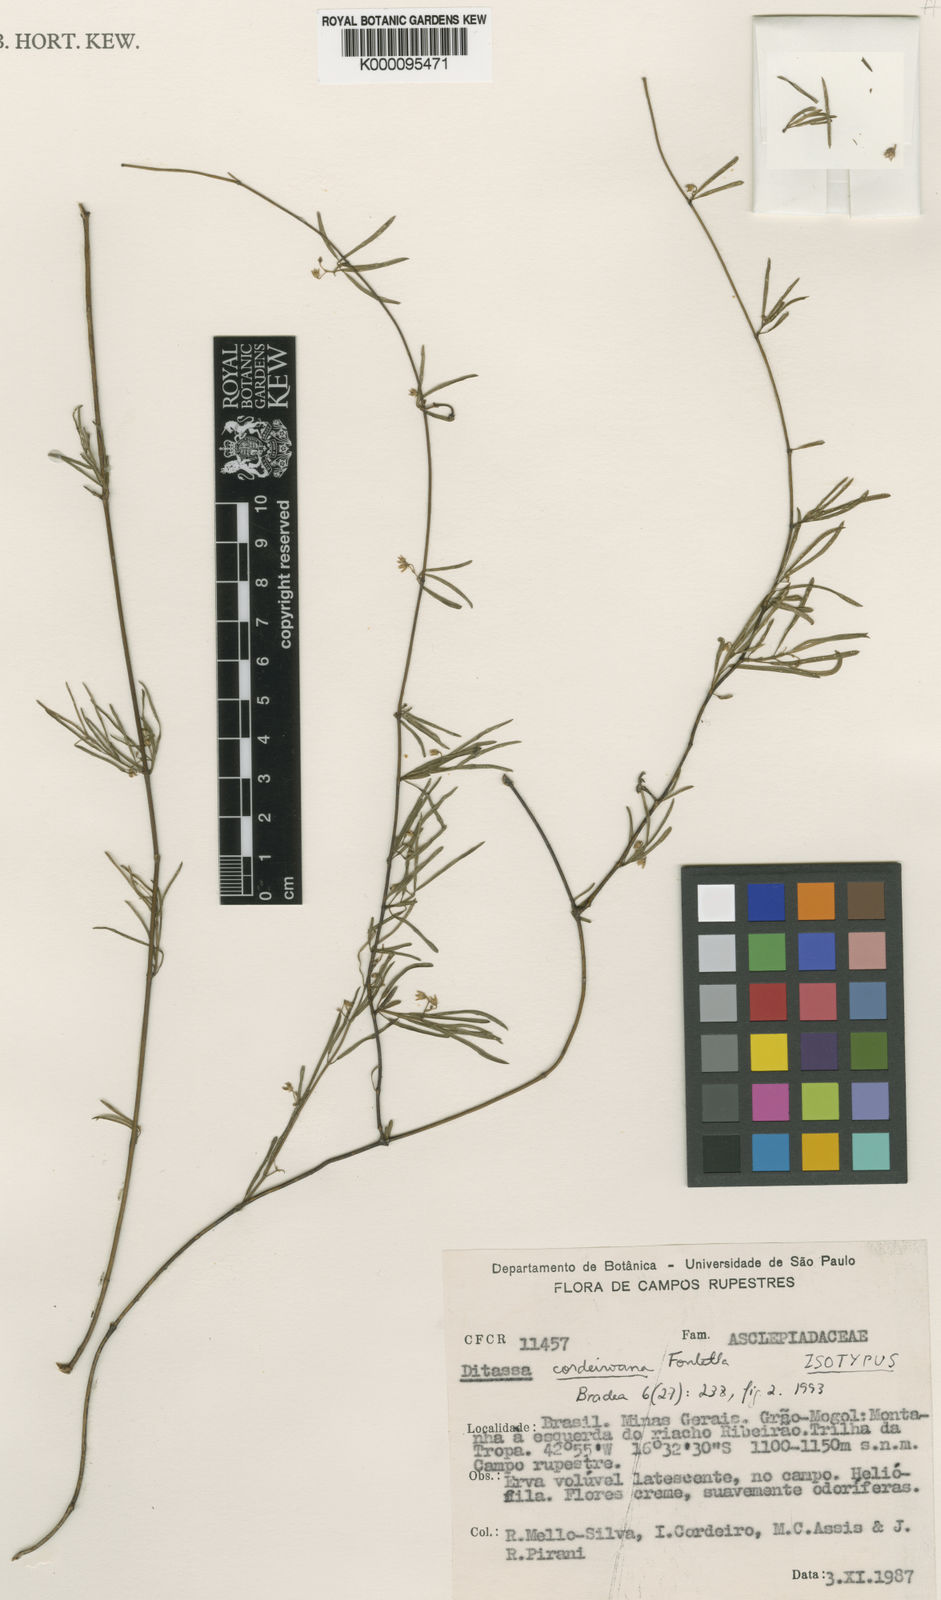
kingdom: Plantae
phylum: Tracheophyta
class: Magnoliopsida
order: Gentianales
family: Apocynaceae
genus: Ditassa
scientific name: Ditassa cordeiroana
